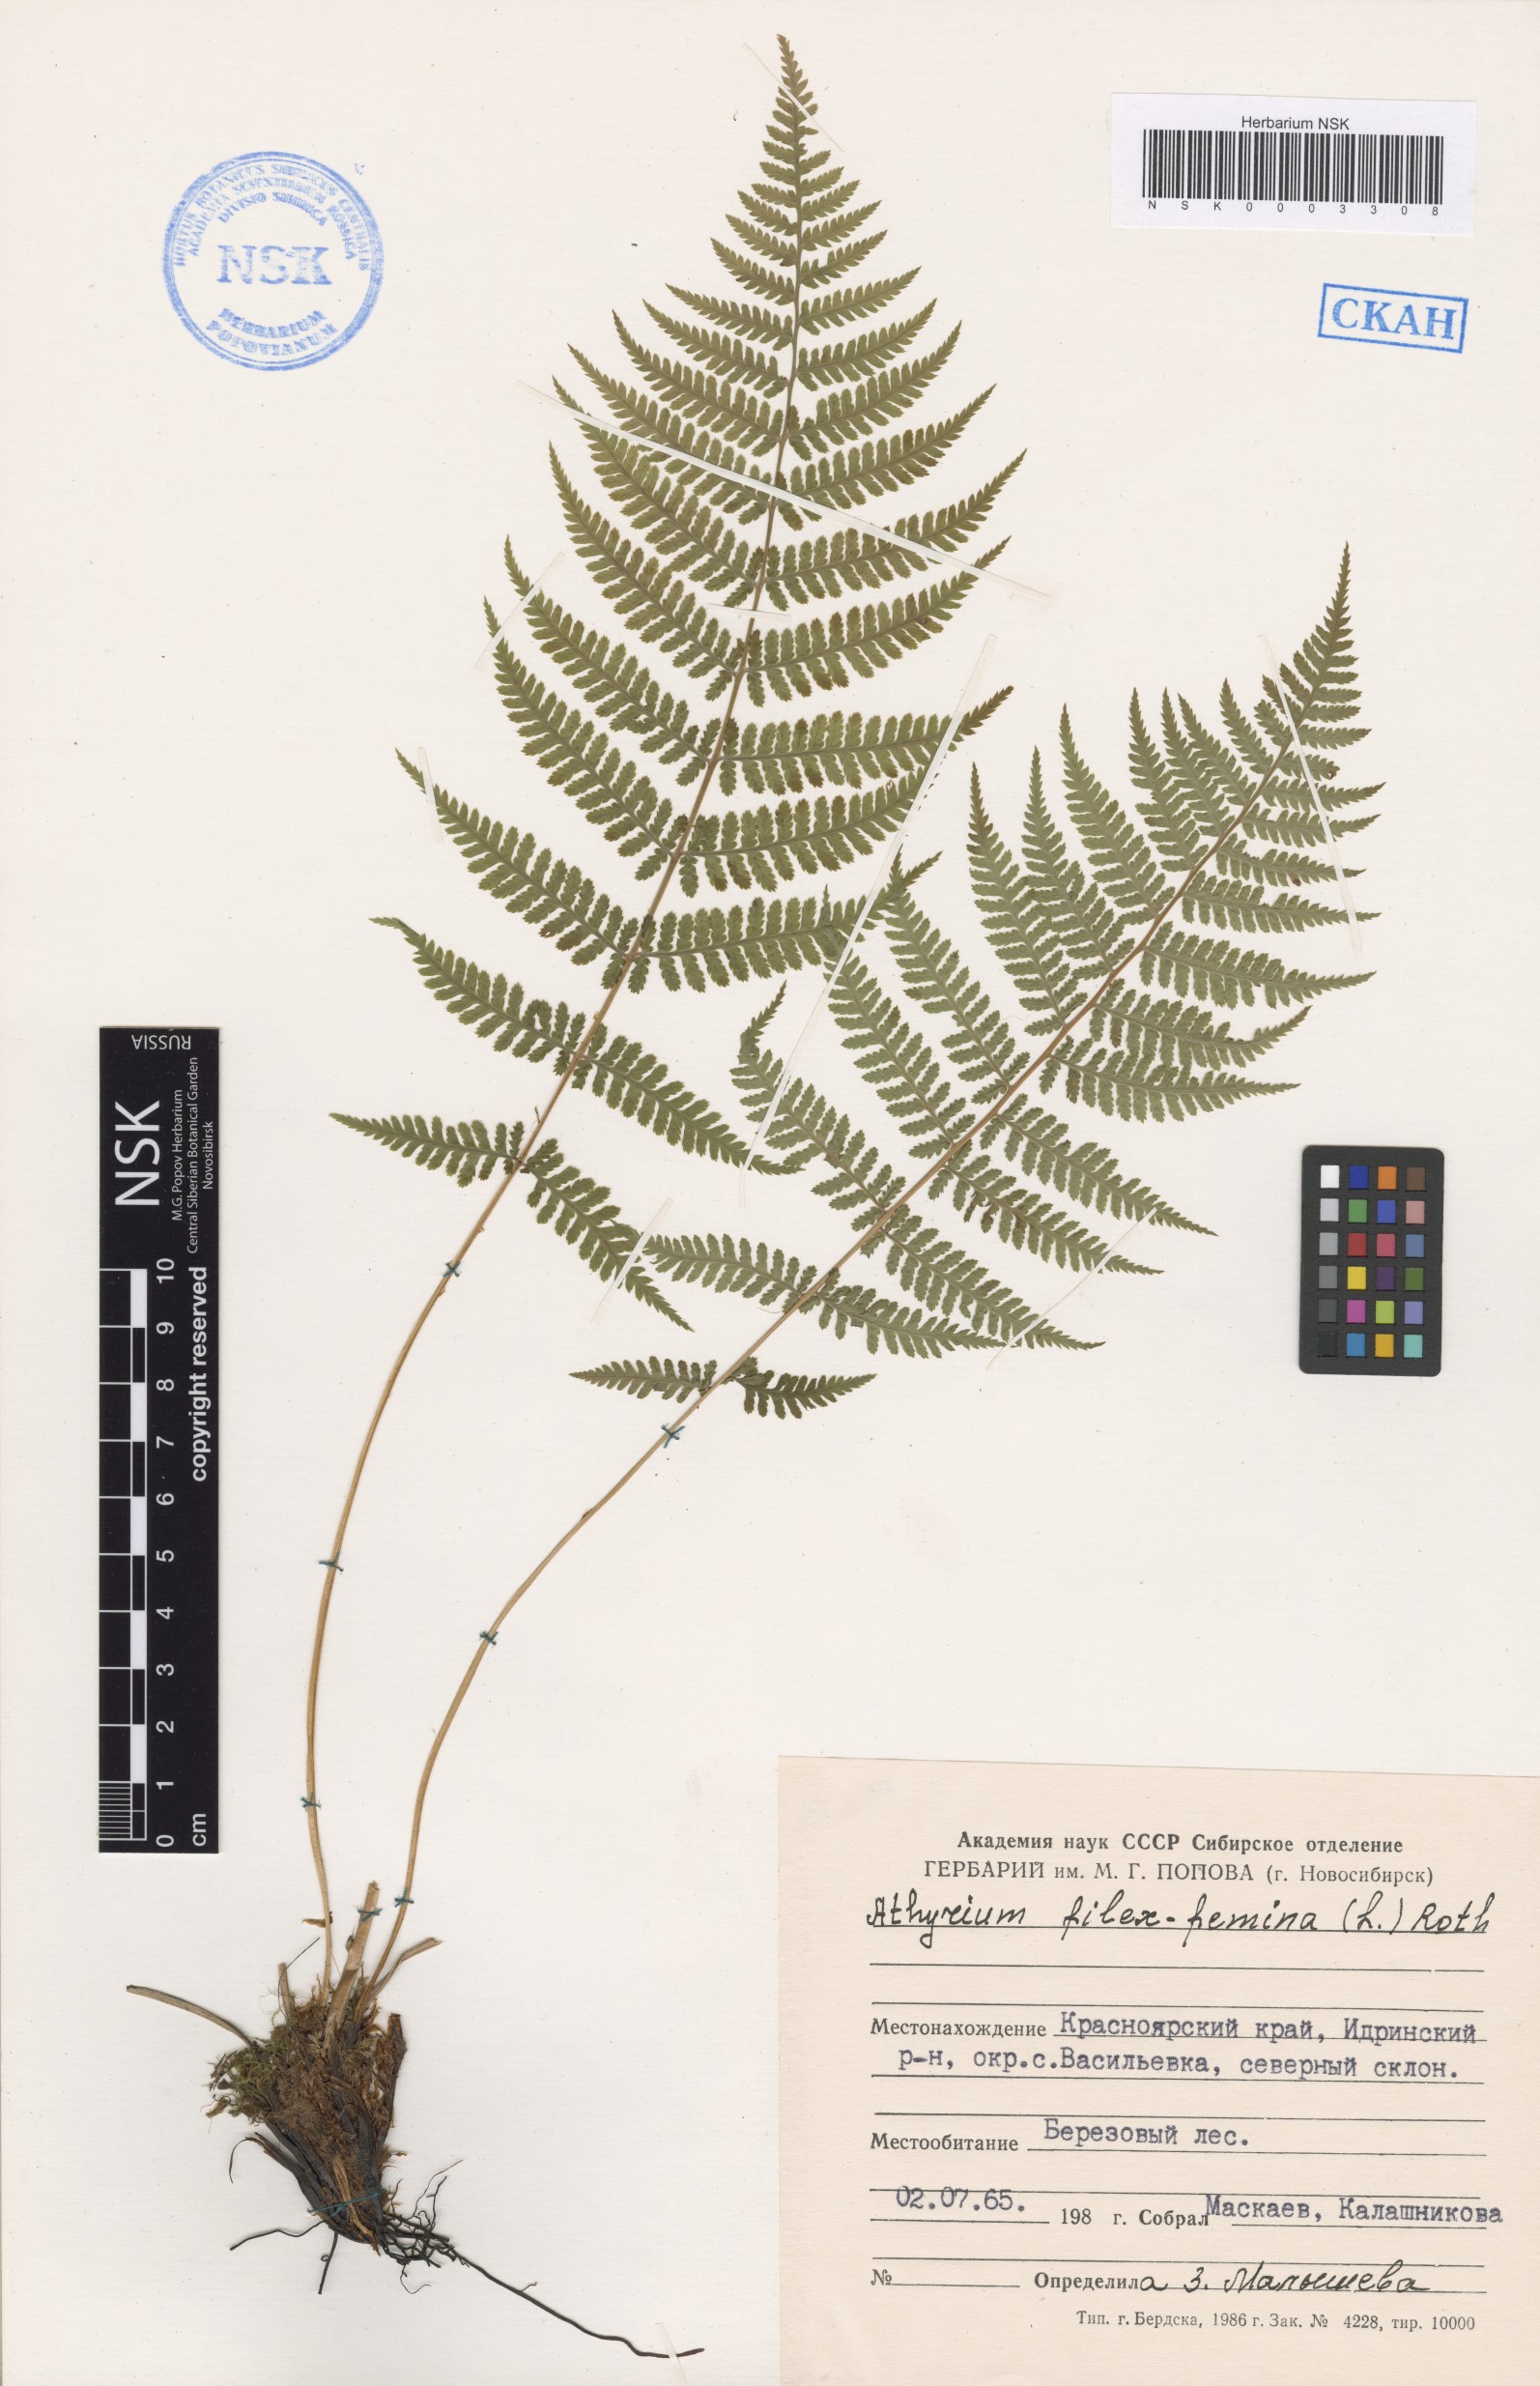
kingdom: Plantae
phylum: Tracheophyta
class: Polypodiopsida
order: Polypodiales
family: Athyriaceae
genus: Athyrium
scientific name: Athyrium filix-femina
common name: Lady fern
